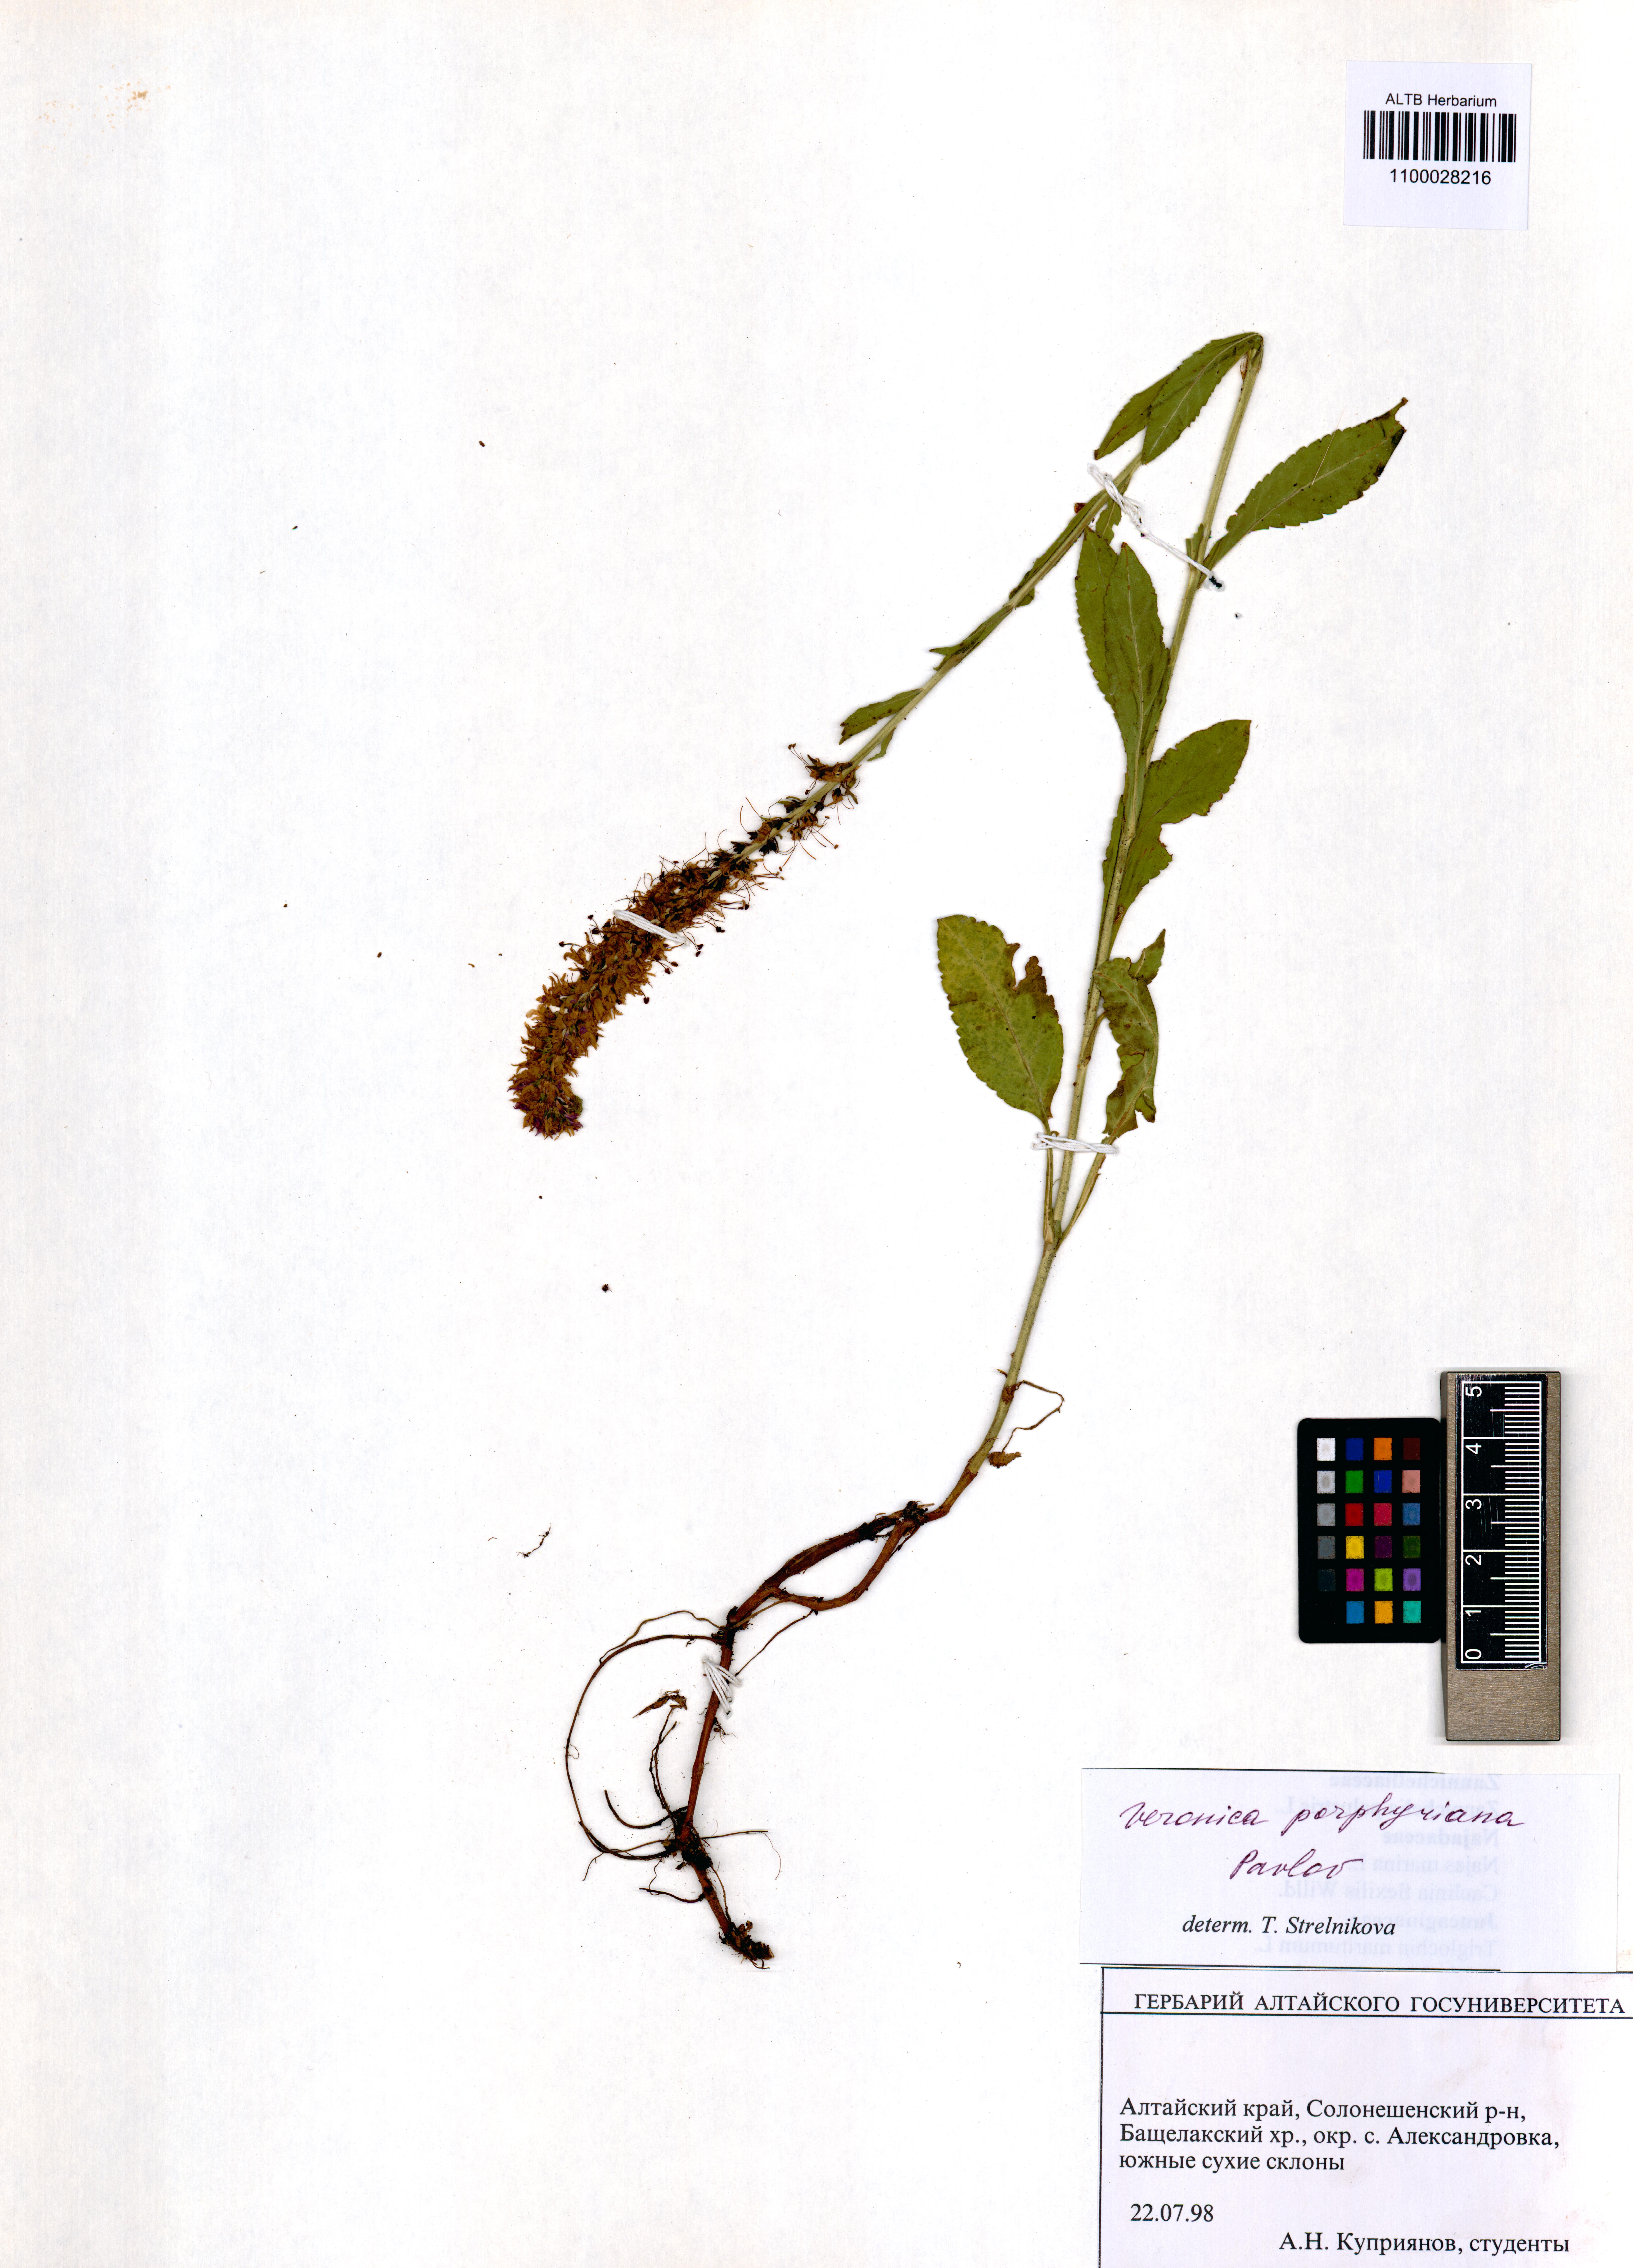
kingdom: Plantae
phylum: Tracheophyta
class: Magnoliopsida
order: Lamiales
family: Plantaginaceae
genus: Veronica
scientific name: Veronica porphyriana
